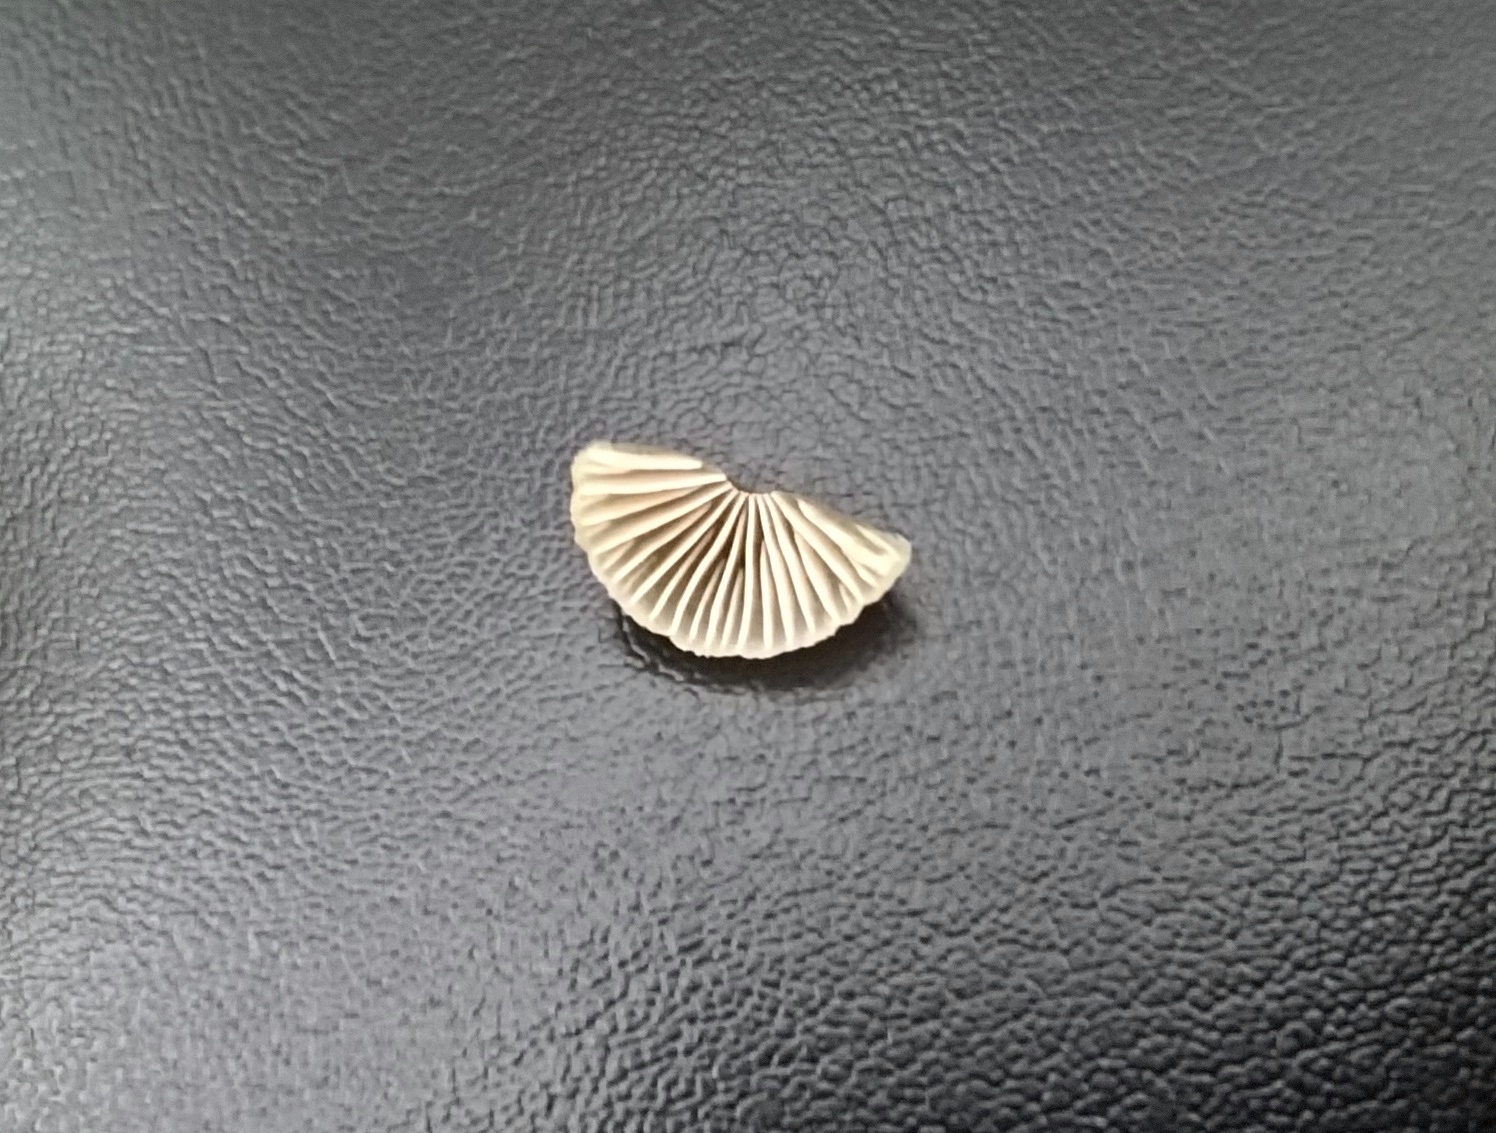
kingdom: Fungi
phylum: Basidiomycota
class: Agaricomycetes
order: Agaricales
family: Mycenaceae
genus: Mycena
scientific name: Mycena
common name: huesvamp
